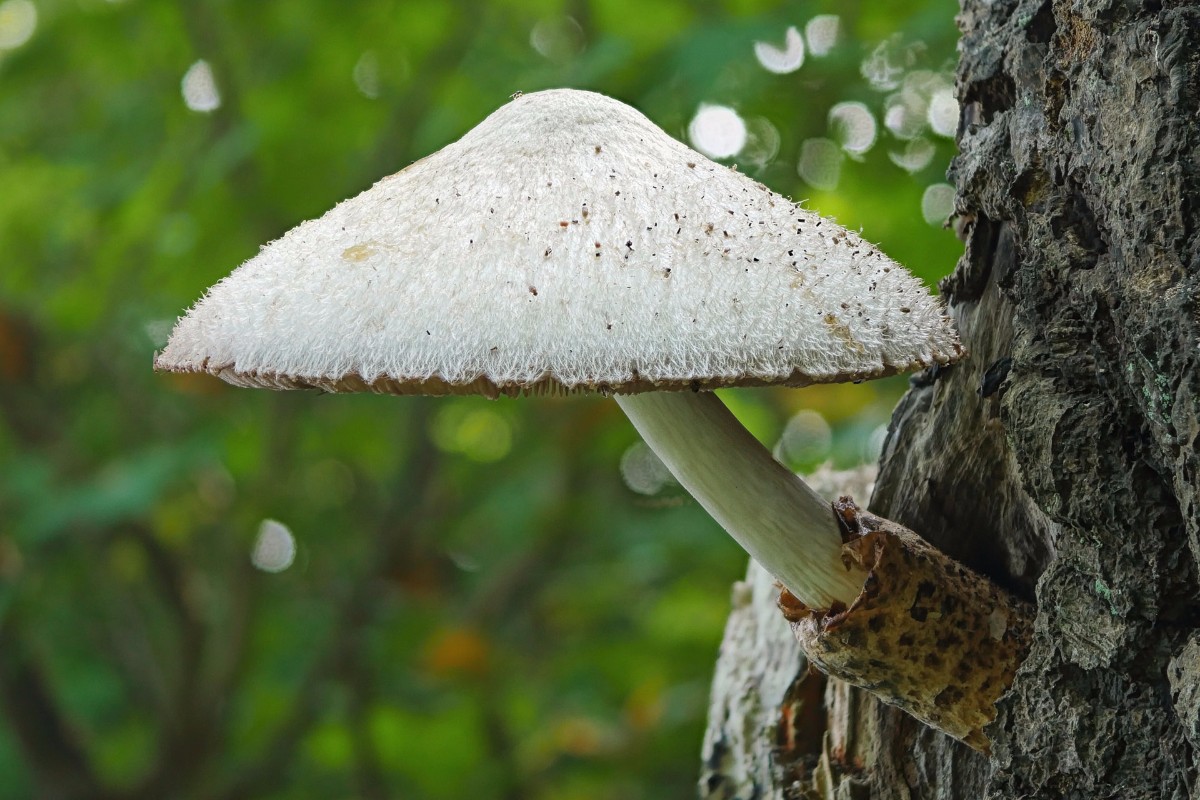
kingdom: Fungi
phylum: Basidiomycota
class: Agaricomycetes
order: Agaricales
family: Pluteaceae
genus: Volvariella
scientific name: Volvariella bombycina
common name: silkehåret posesvamp
